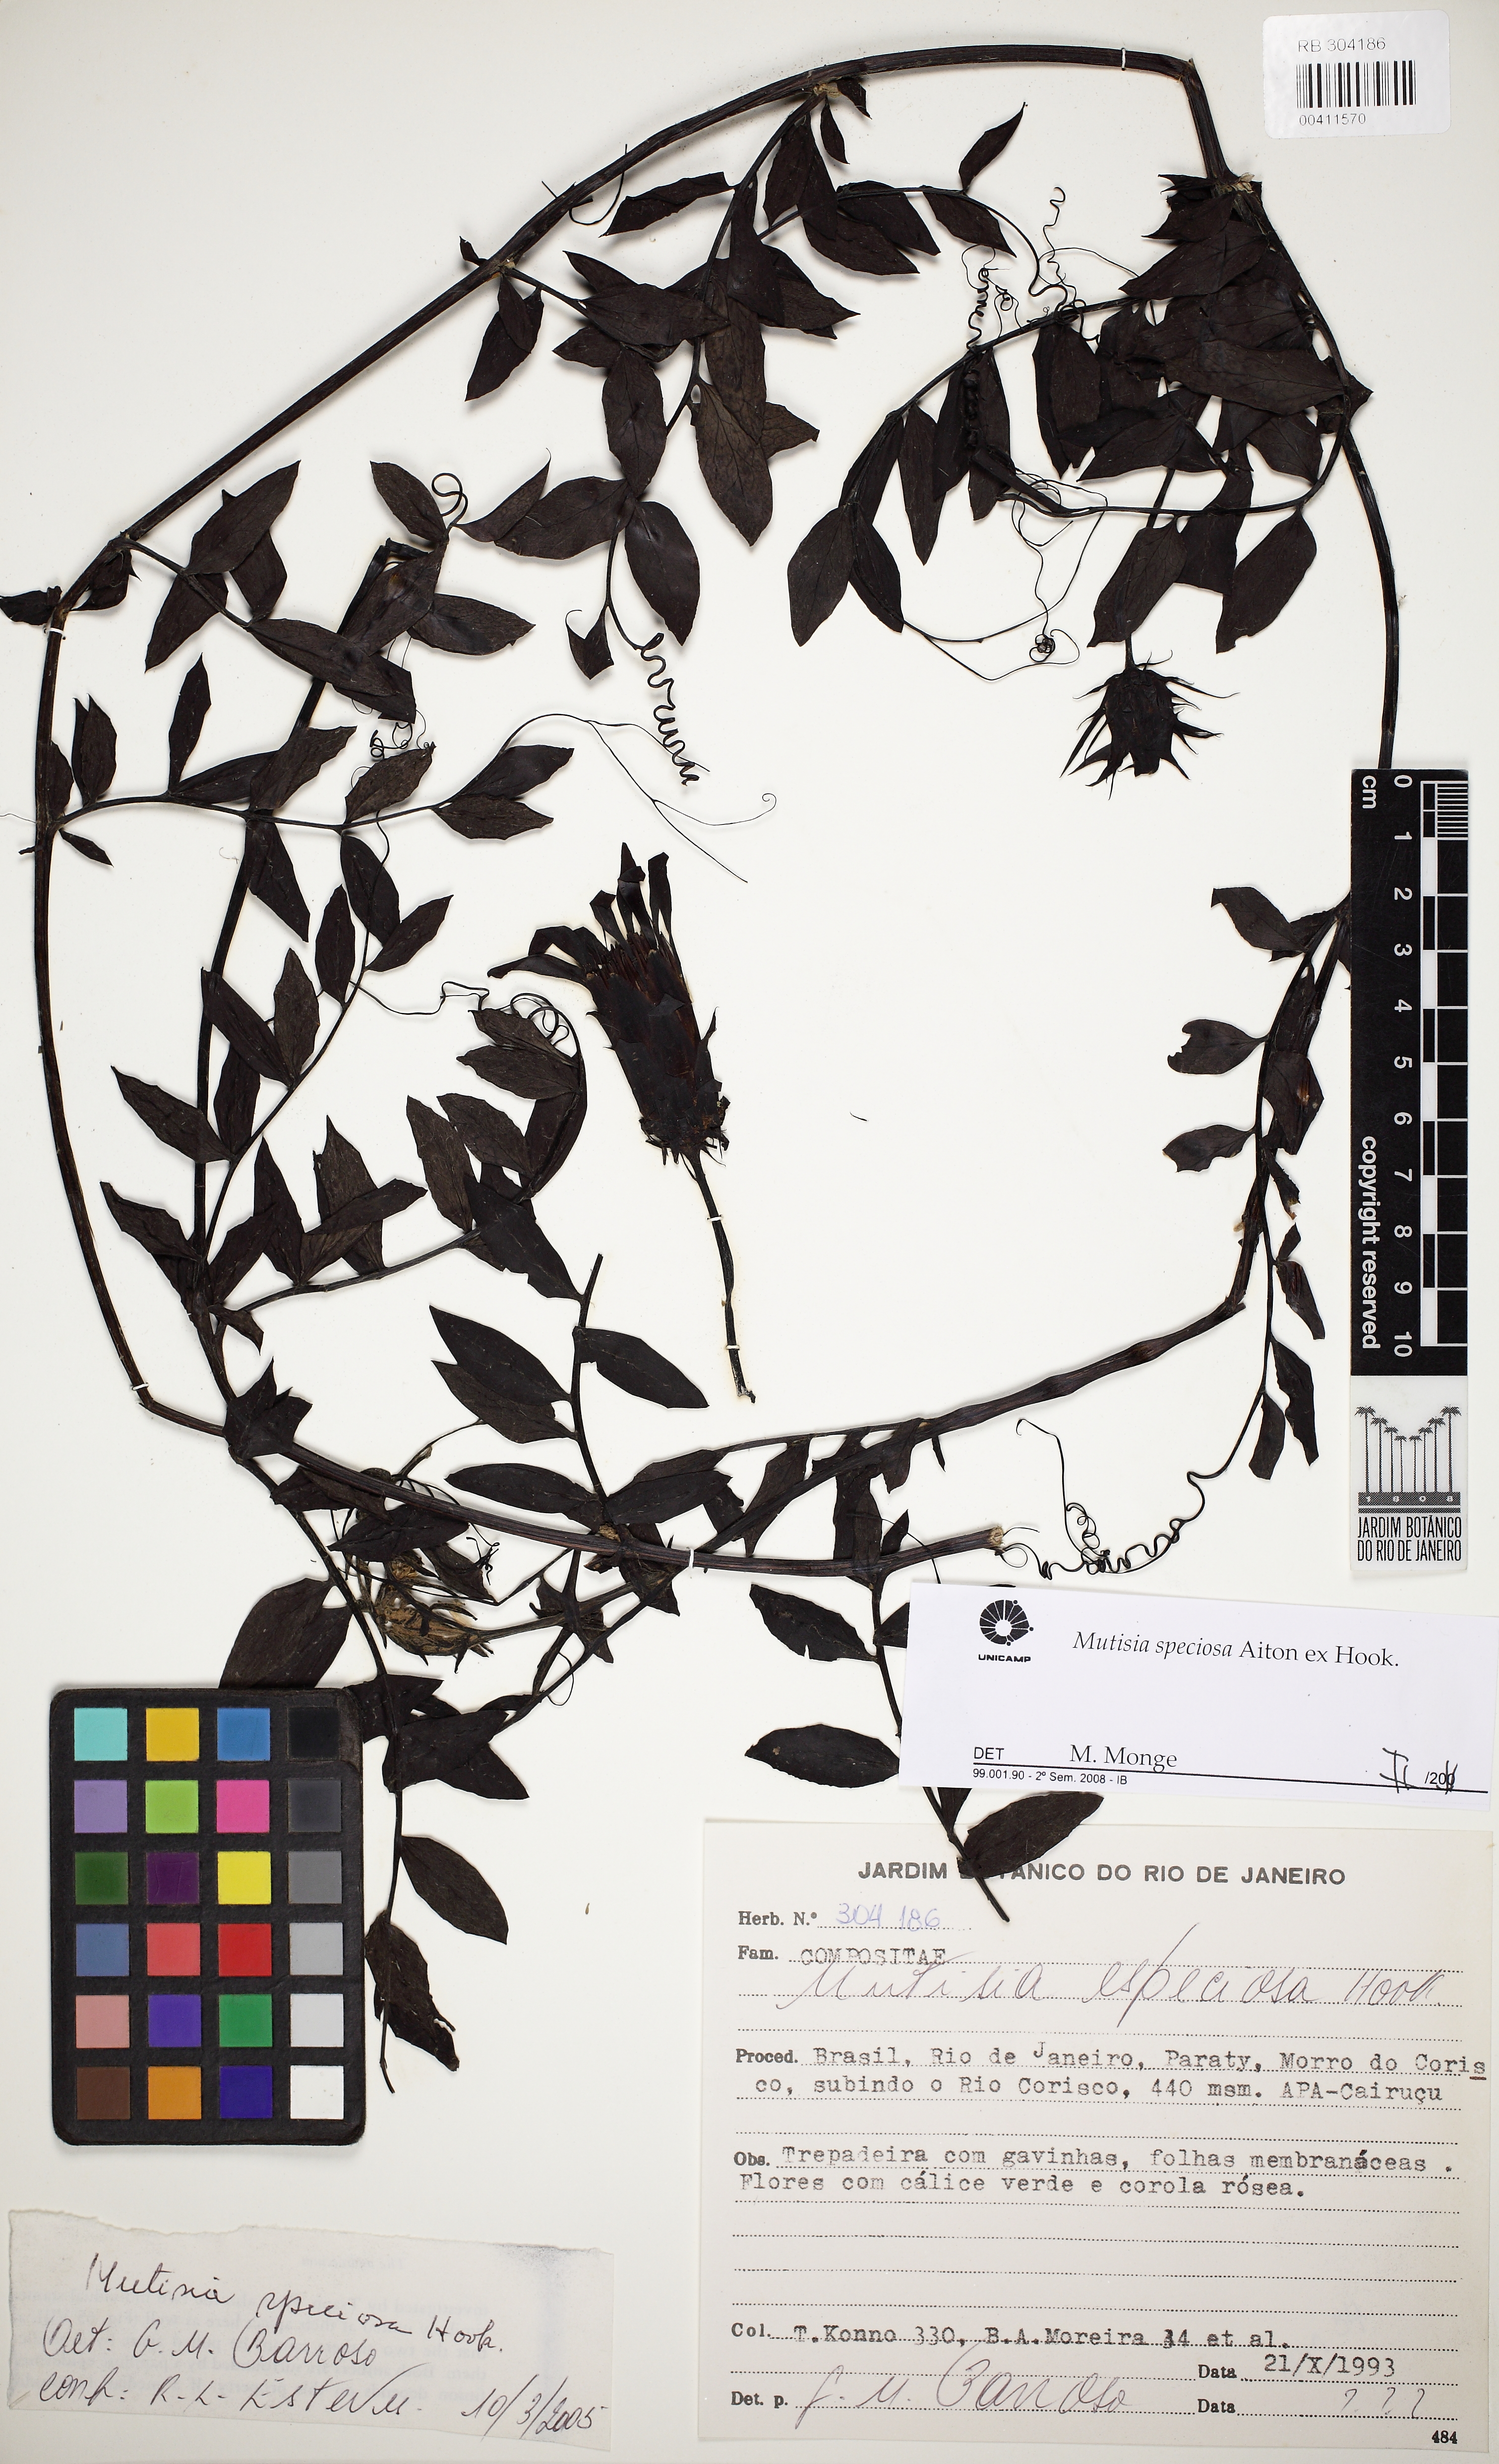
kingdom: Plantae
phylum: Tracheophyta
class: Magnoliopsida
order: Asterales
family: Asteraceae
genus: Mutisia
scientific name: Mutisia speciosa
